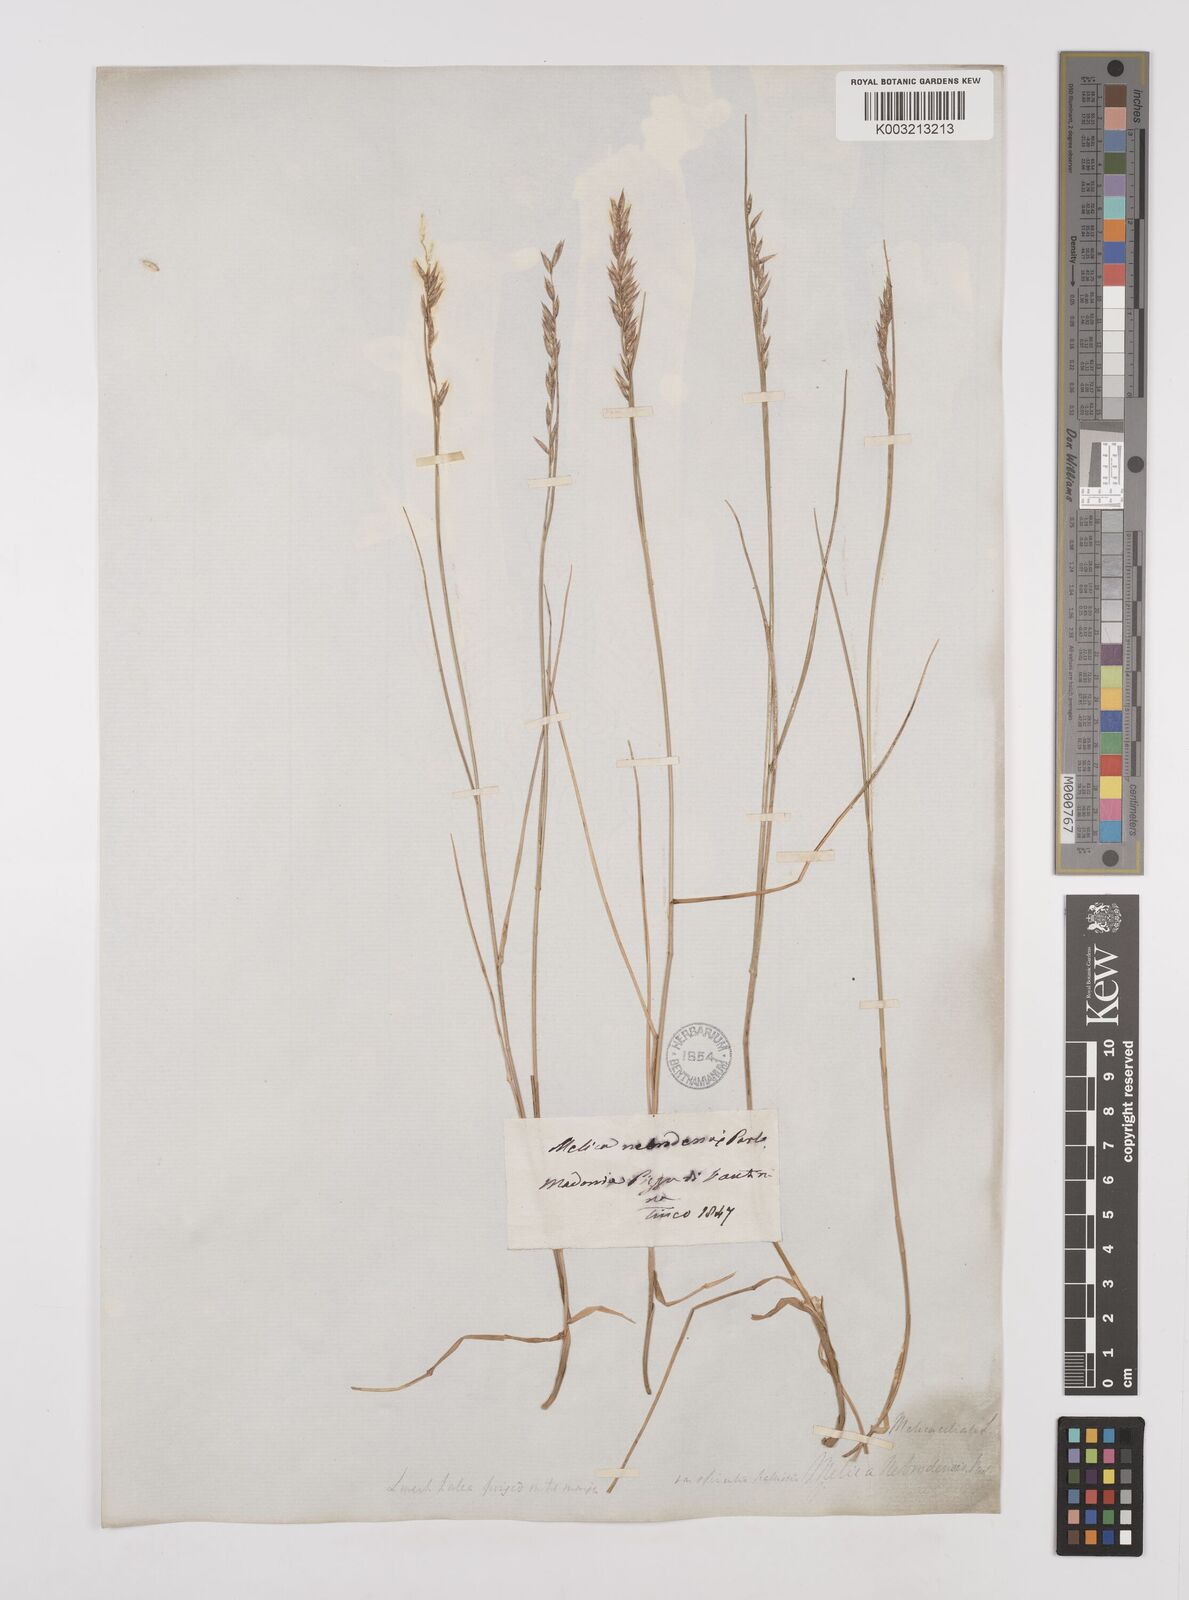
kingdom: Plantae
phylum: Tracheophyta
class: Liliopsida
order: Poales
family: Poaceae
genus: Melica
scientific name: Melica ciliata
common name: Hairy melicgrass
